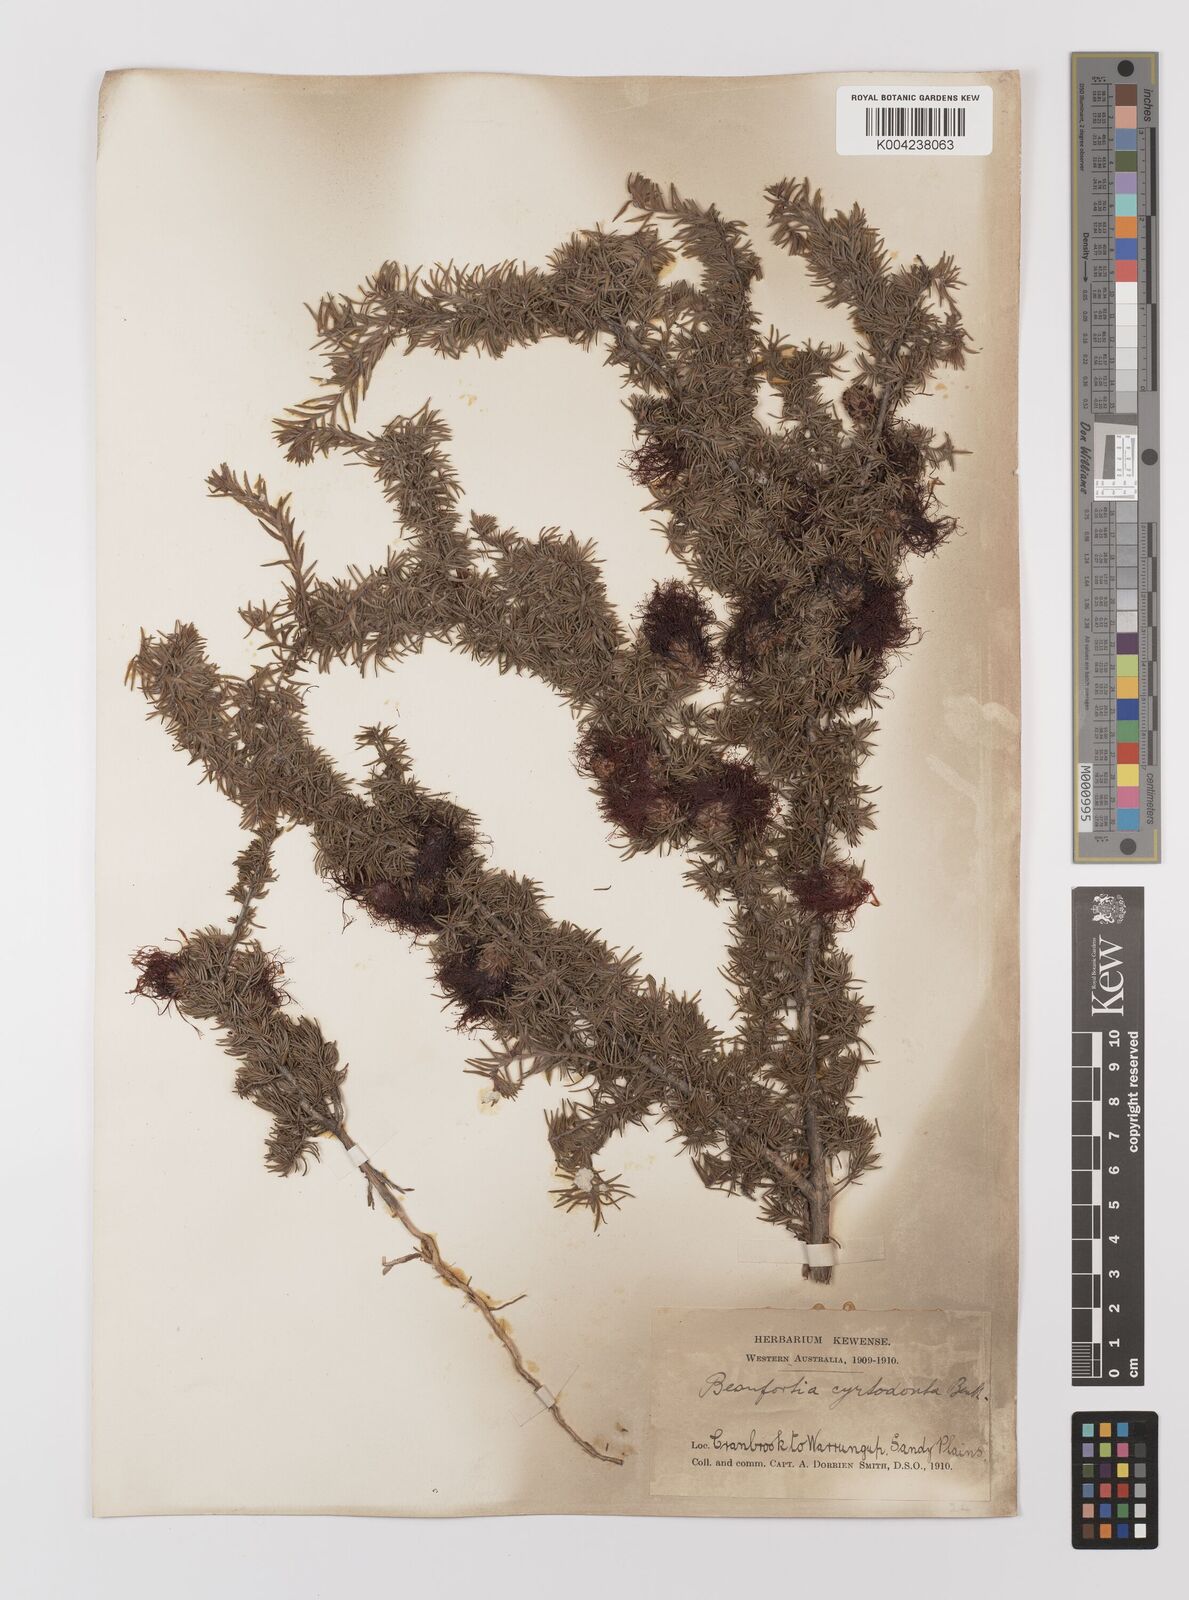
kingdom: Plantae
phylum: Tracheophyta
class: Magnoliopsida
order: Myrtales
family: Myrtaceae
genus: Melaleuca
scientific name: Melaleuca cyrtodonta
